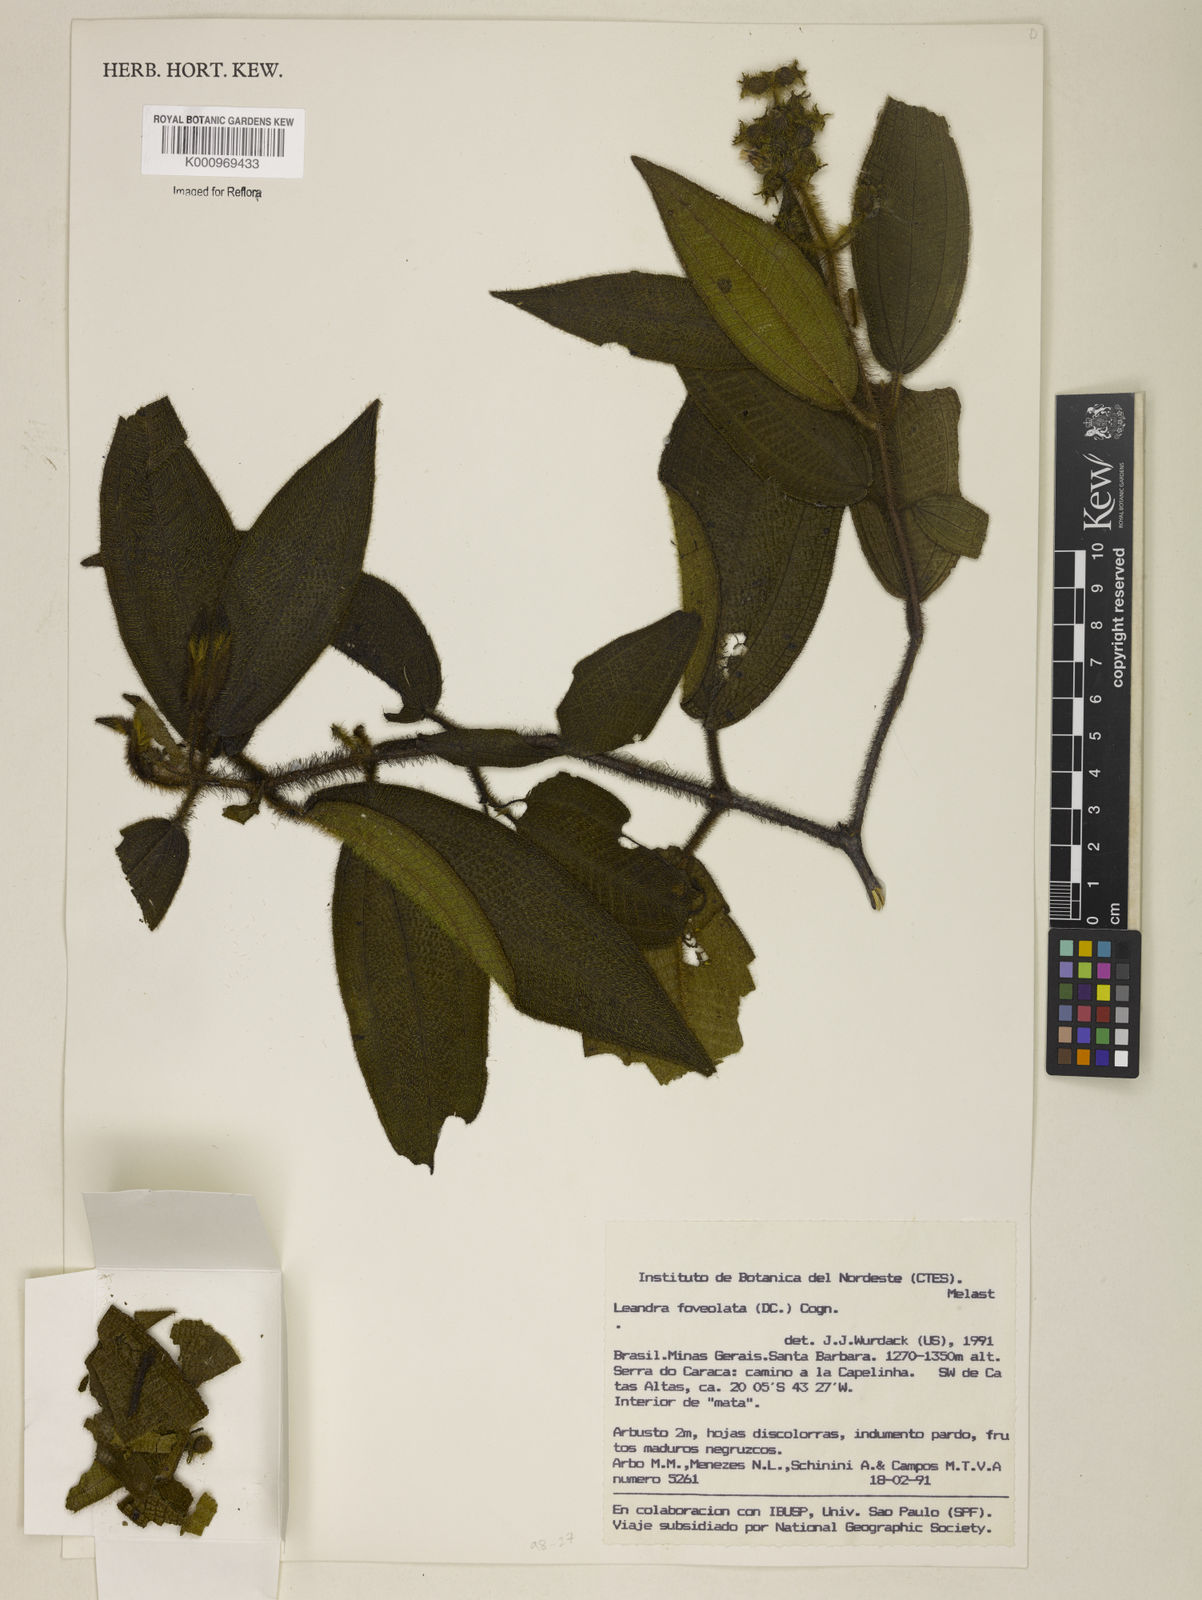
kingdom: Plantae
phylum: Tracheophyta
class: Magnoliopsida
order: Myrtales
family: Melastomataceae
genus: Miconia
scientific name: Miconia leafoveolata
